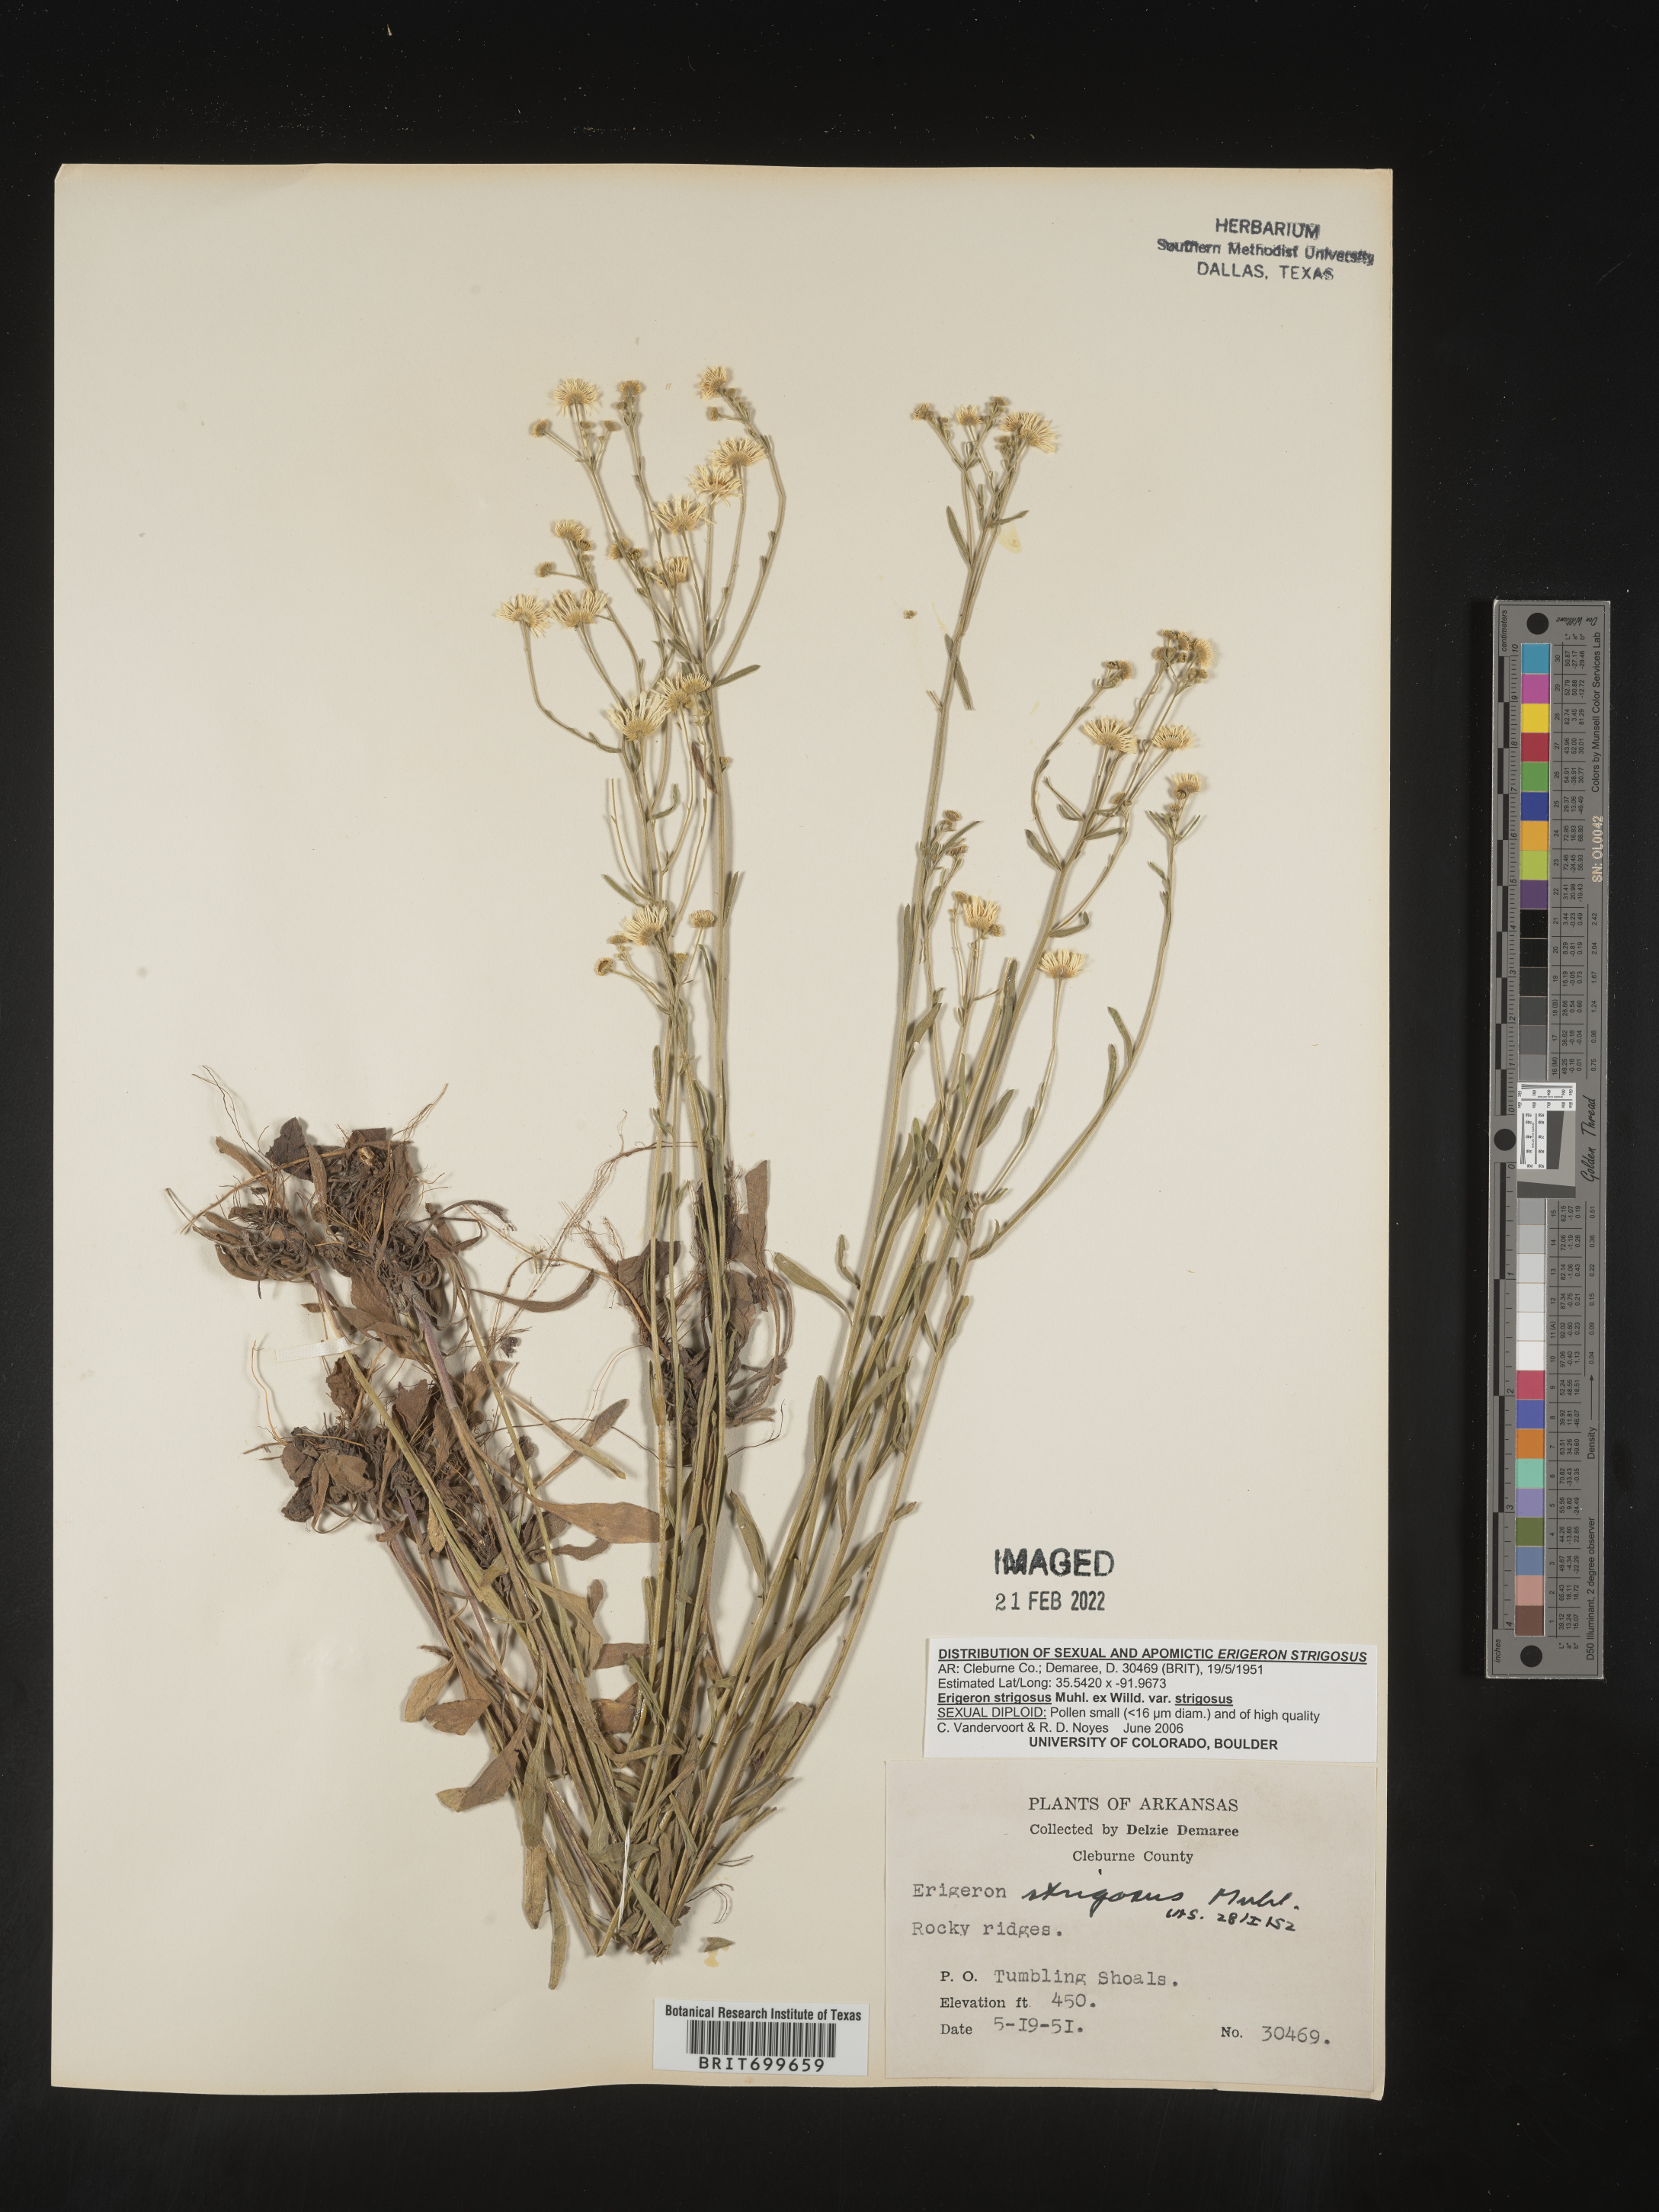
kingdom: Plantae
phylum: Tracheophyta
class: Magnoliopsida
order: Asterales
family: Asteraceae
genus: Erigeron
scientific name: Erigeron strigosus
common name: Common eastern fleabane
